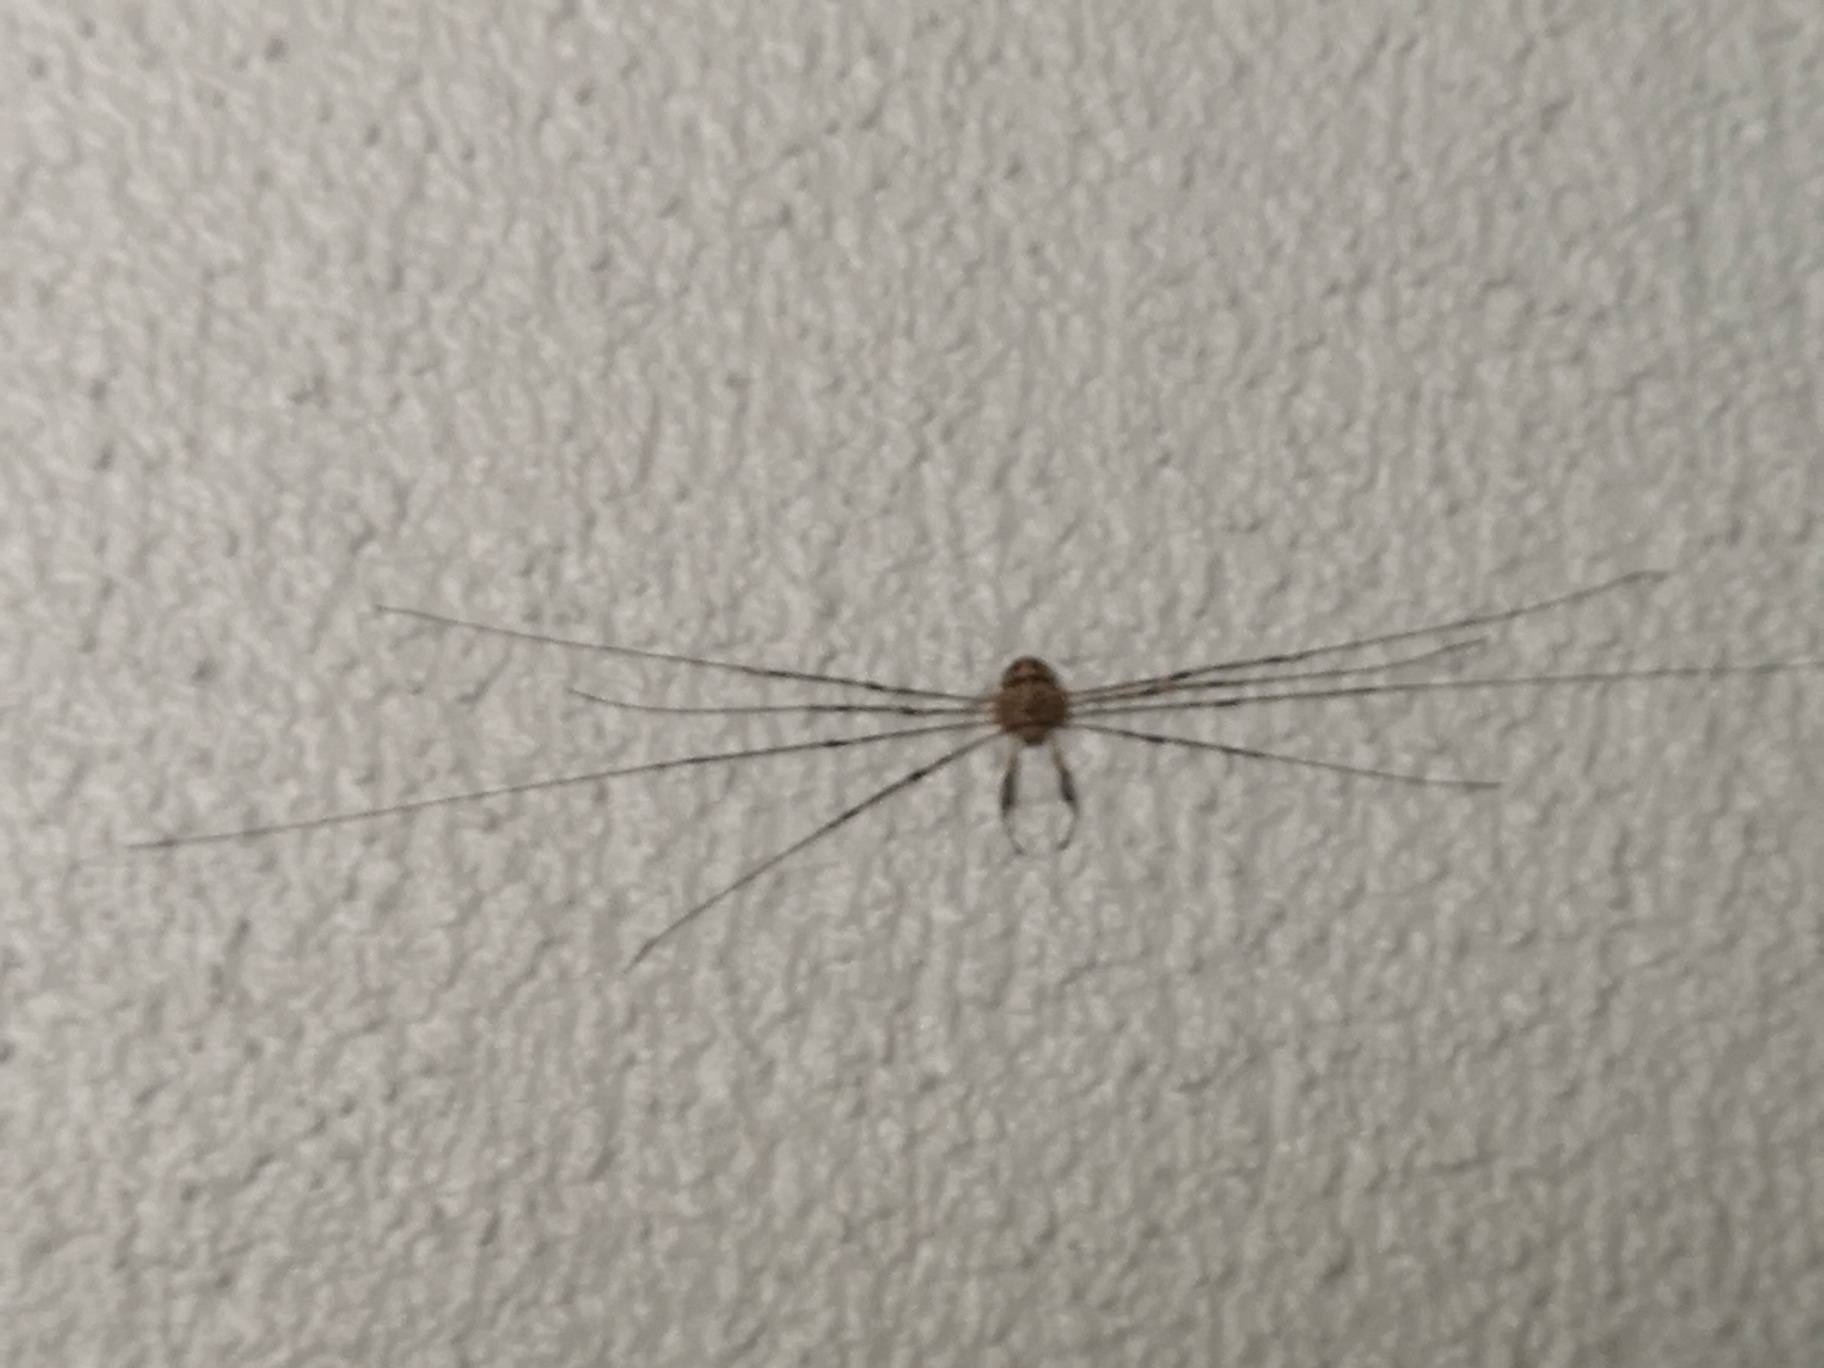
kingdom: Animalia
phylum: Arthropoda
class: Arachnida
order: Opiliones
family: Phalangiidae
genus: Dicranopalpus
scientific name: Dicranopalpus ramosus
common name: Gaffelmejer
